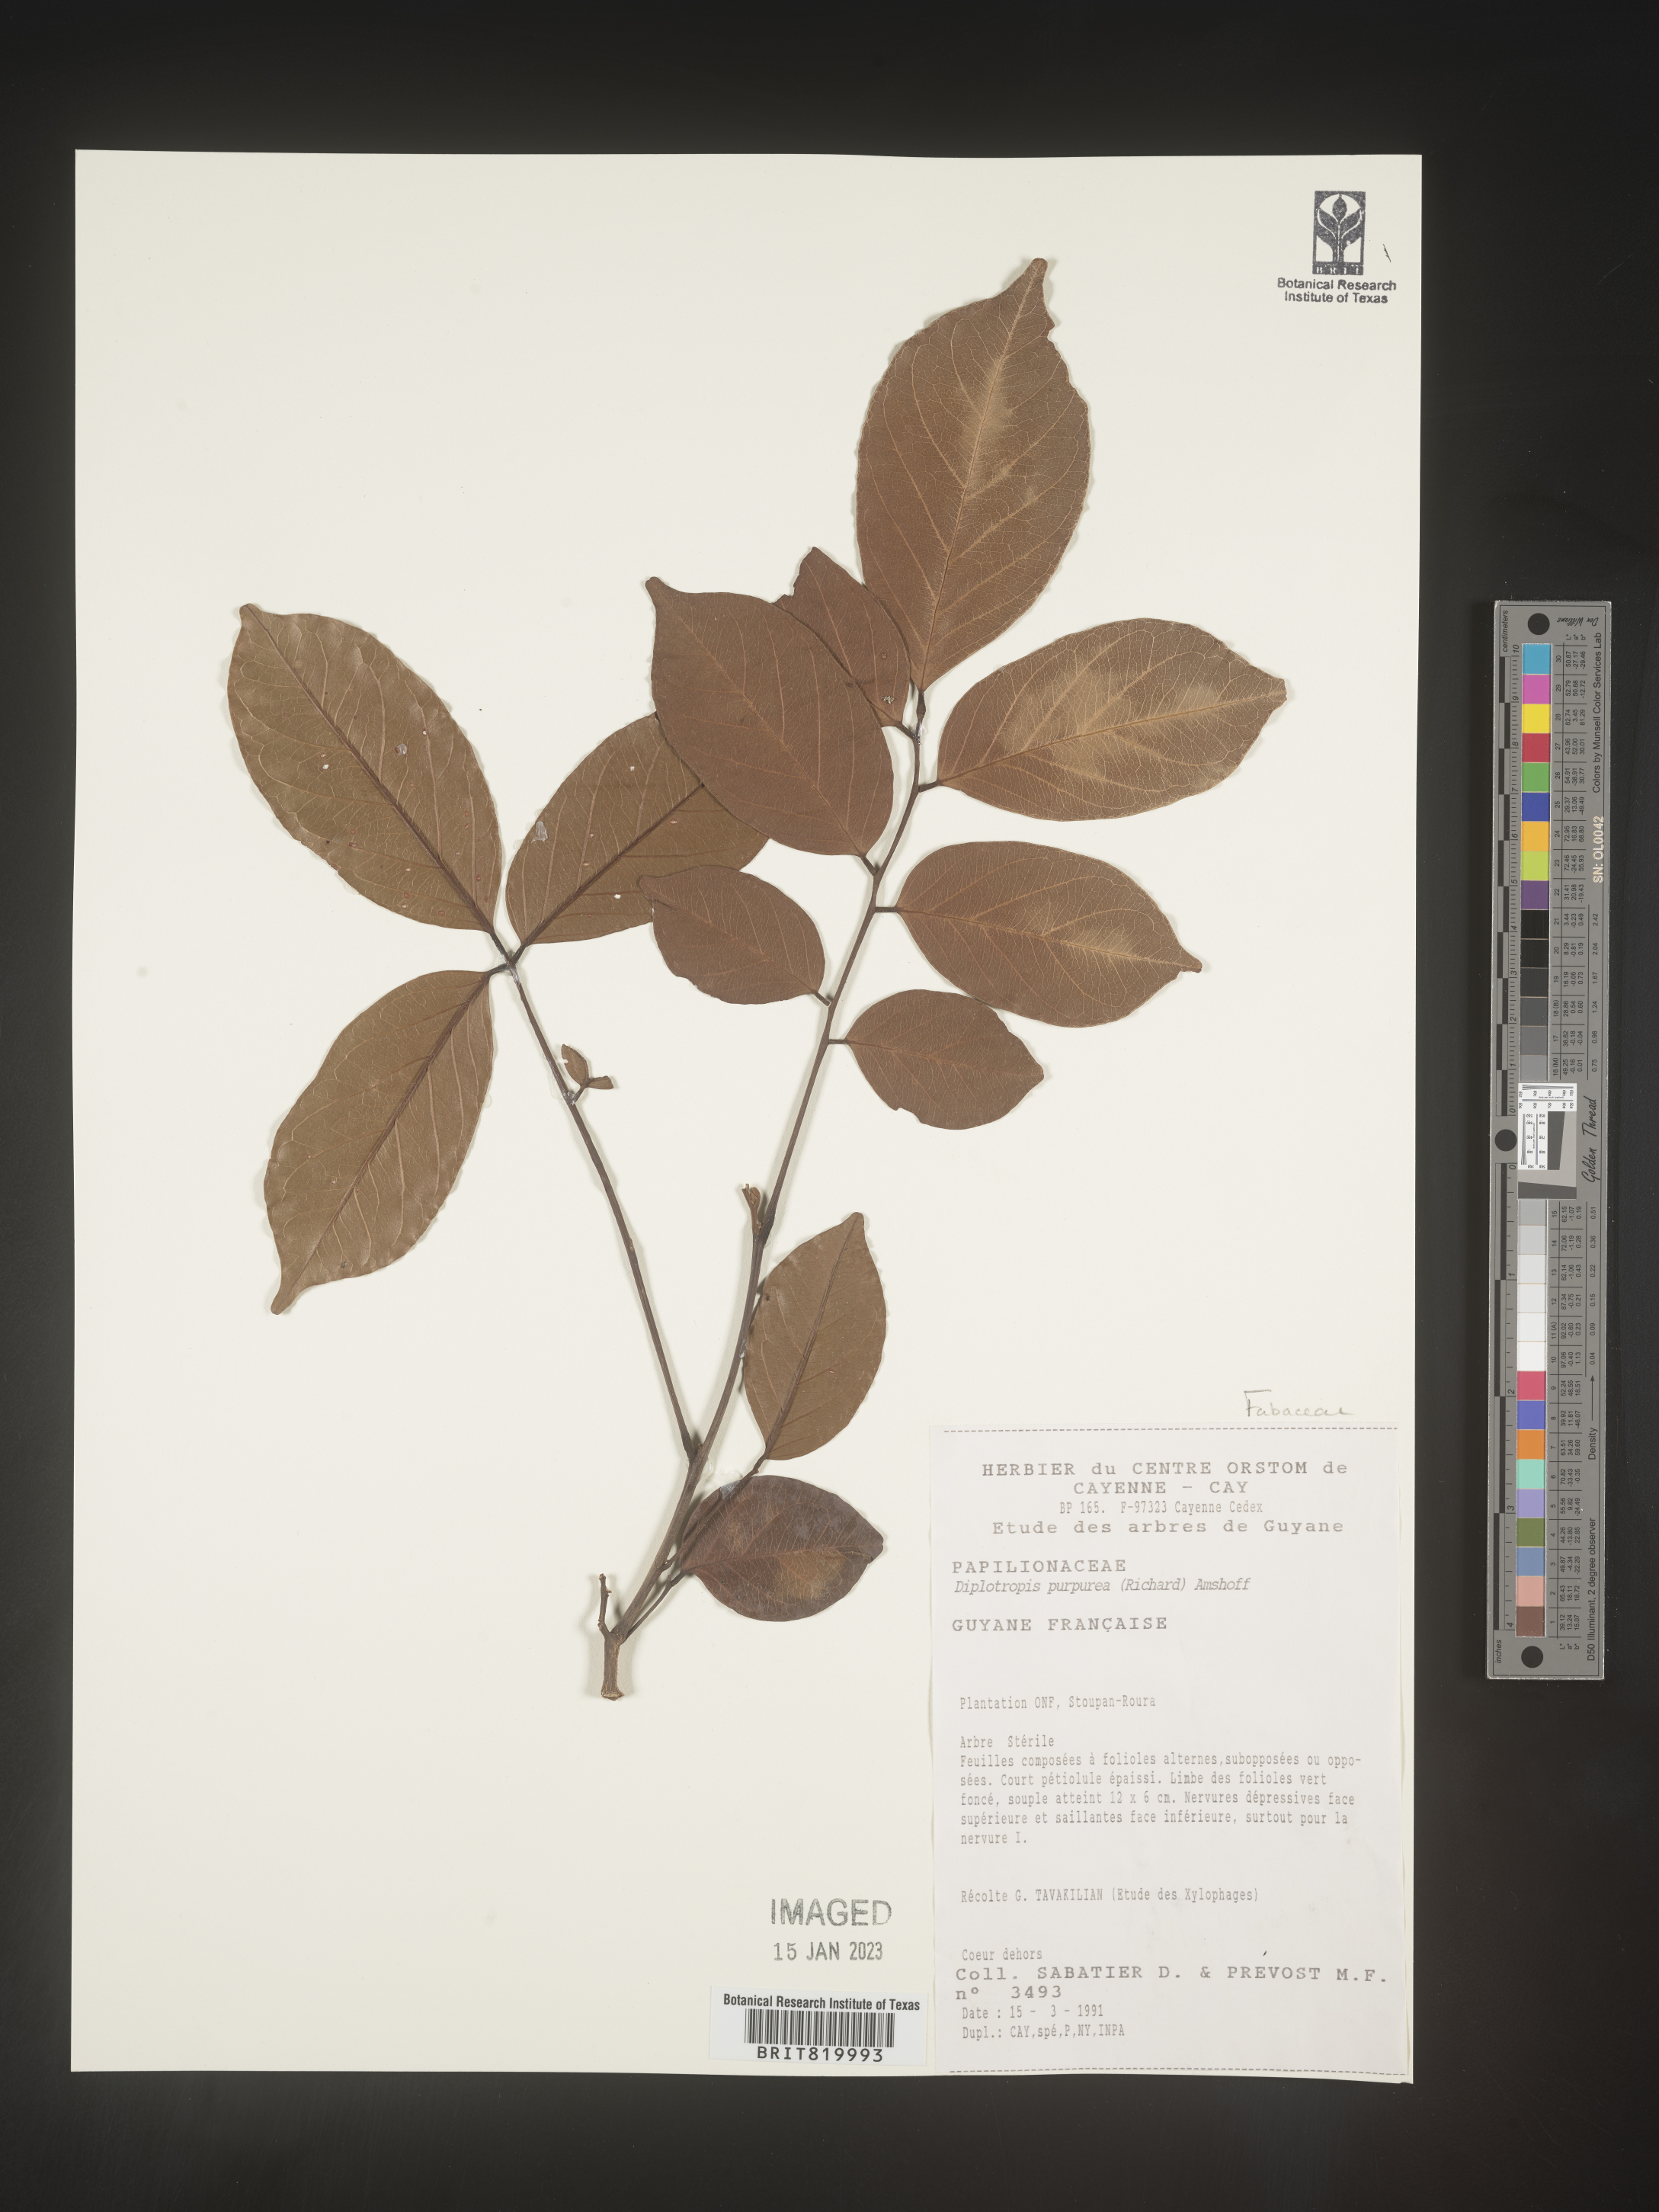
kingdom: Plantae
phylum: Tracheophyta
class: Magnoliopsida
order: Fabales
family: Fabaceae
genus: Diplotropis
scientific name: Diplotropis
